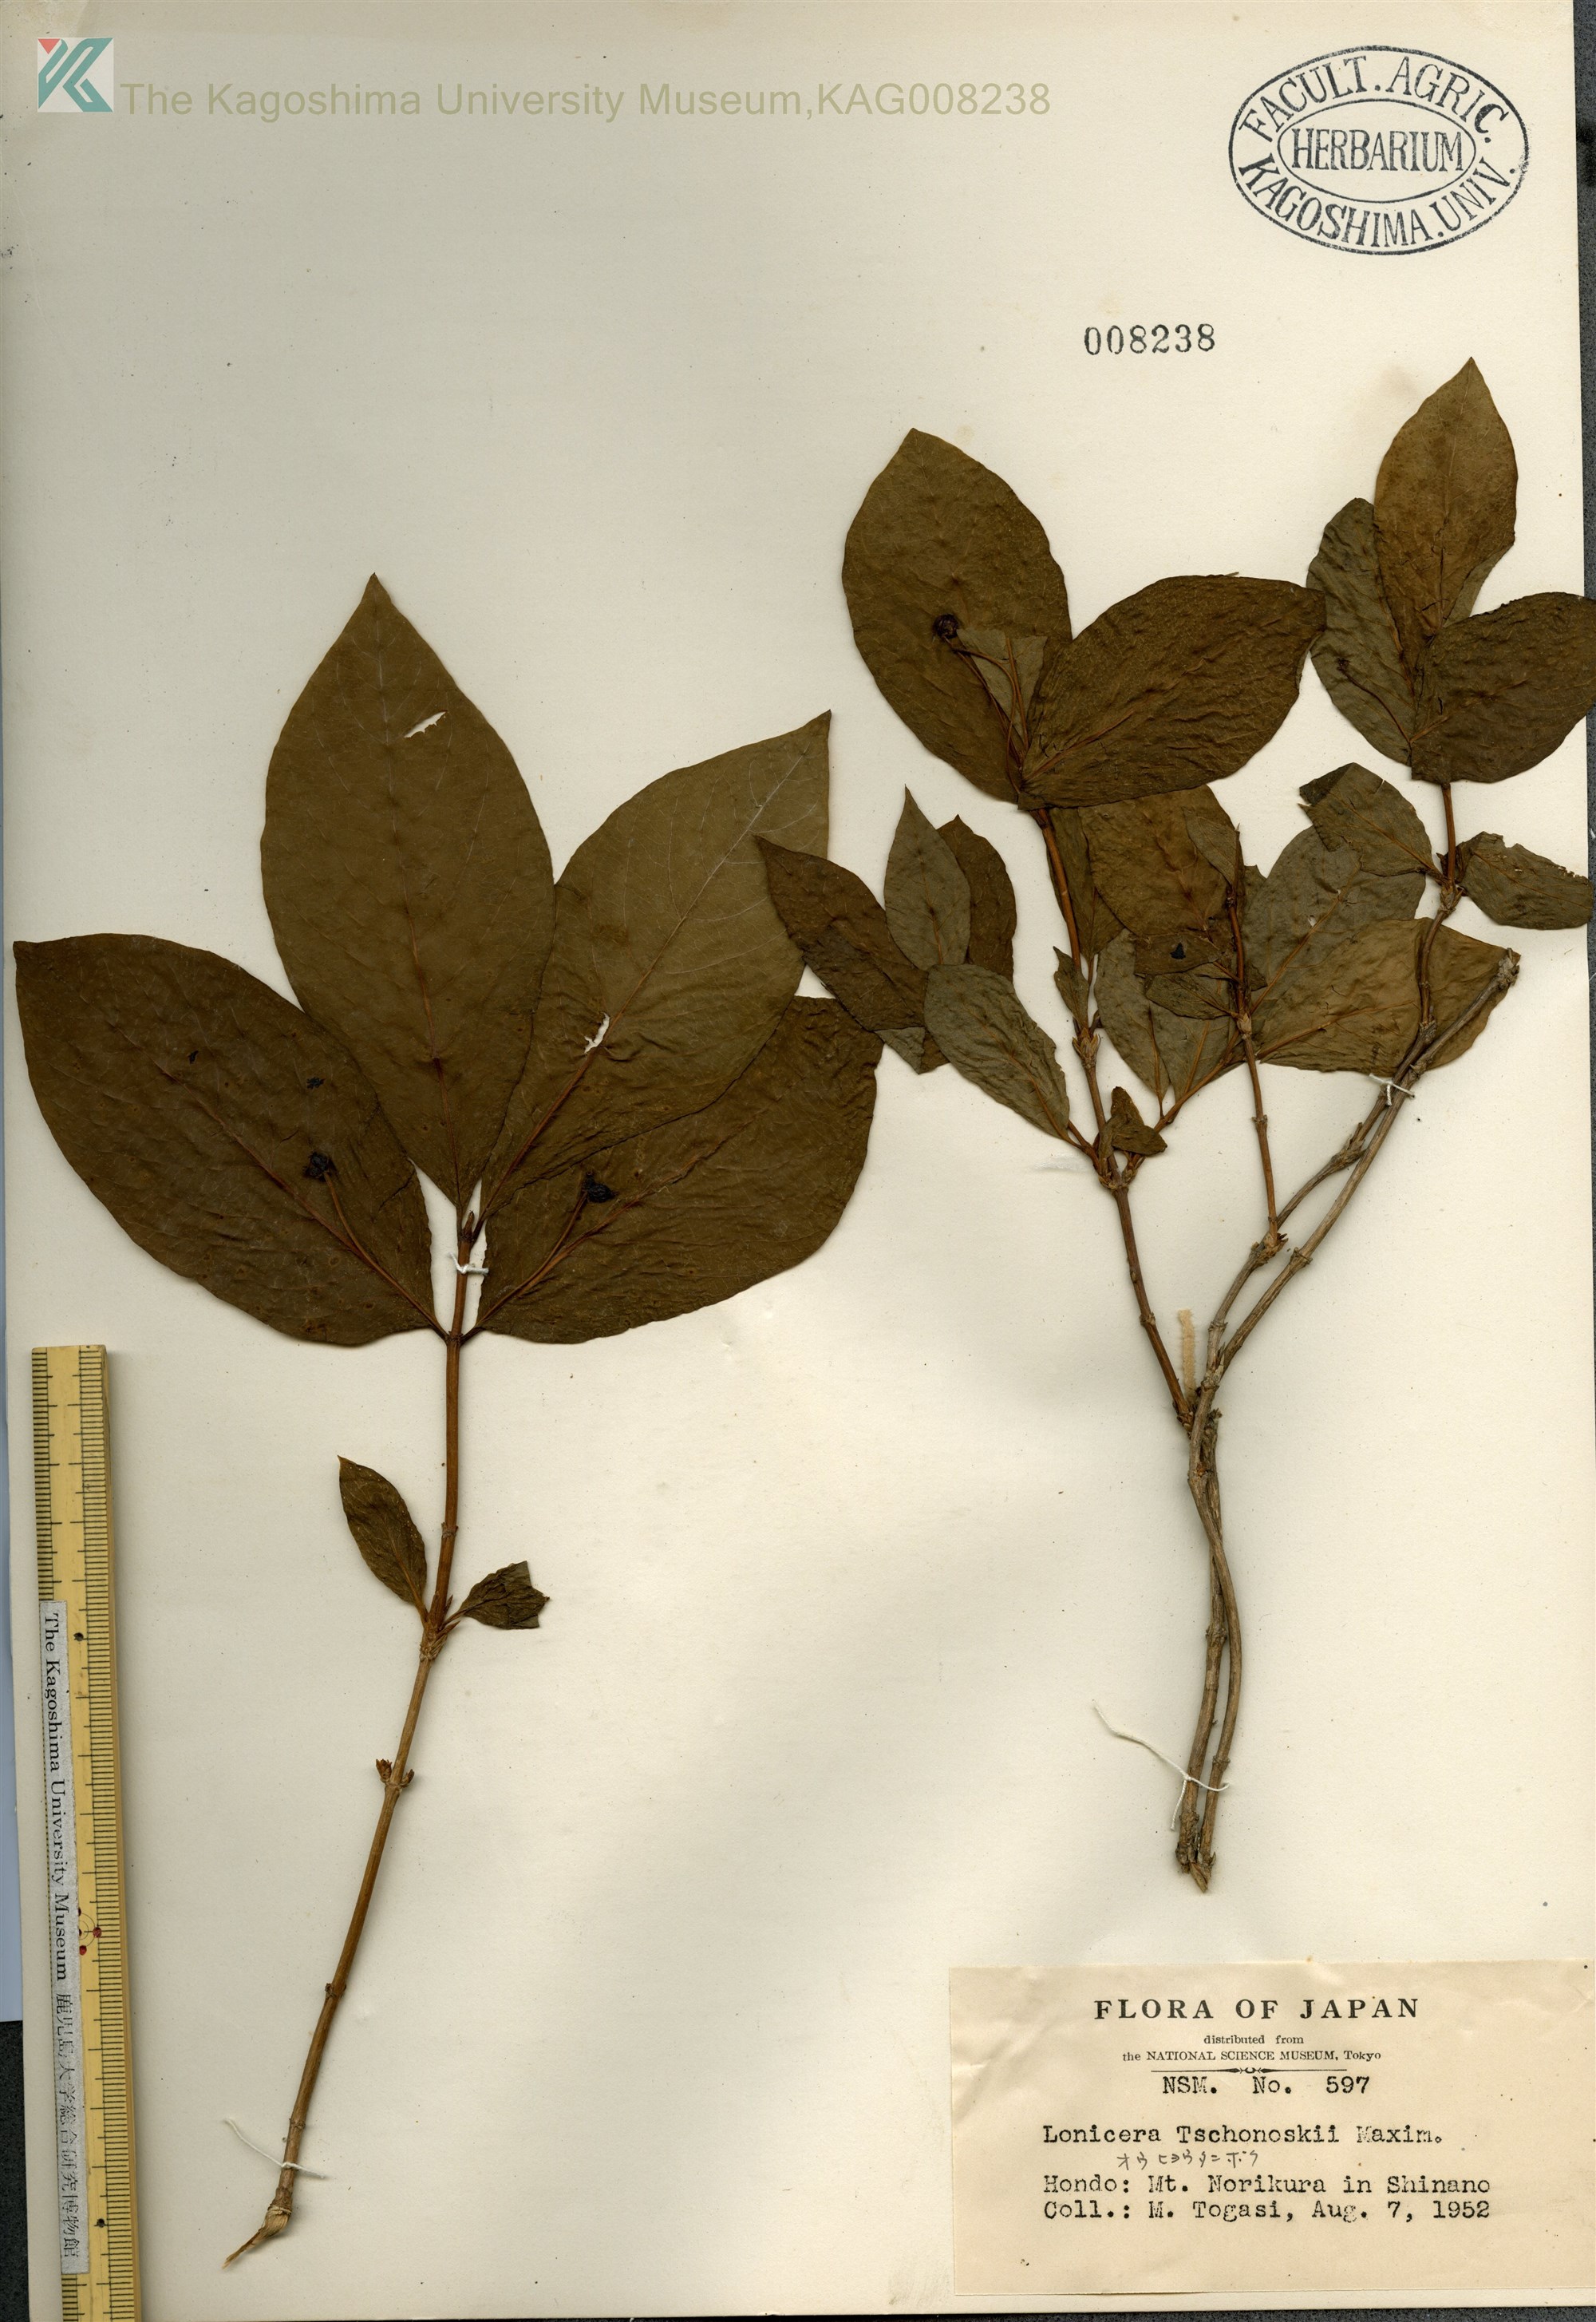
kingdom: Plantae
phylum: Tracheophyta
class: Magnoliopsida
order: Dipsacales
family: Caprifoliaceae
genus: Lonicera
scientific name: Lonicera
